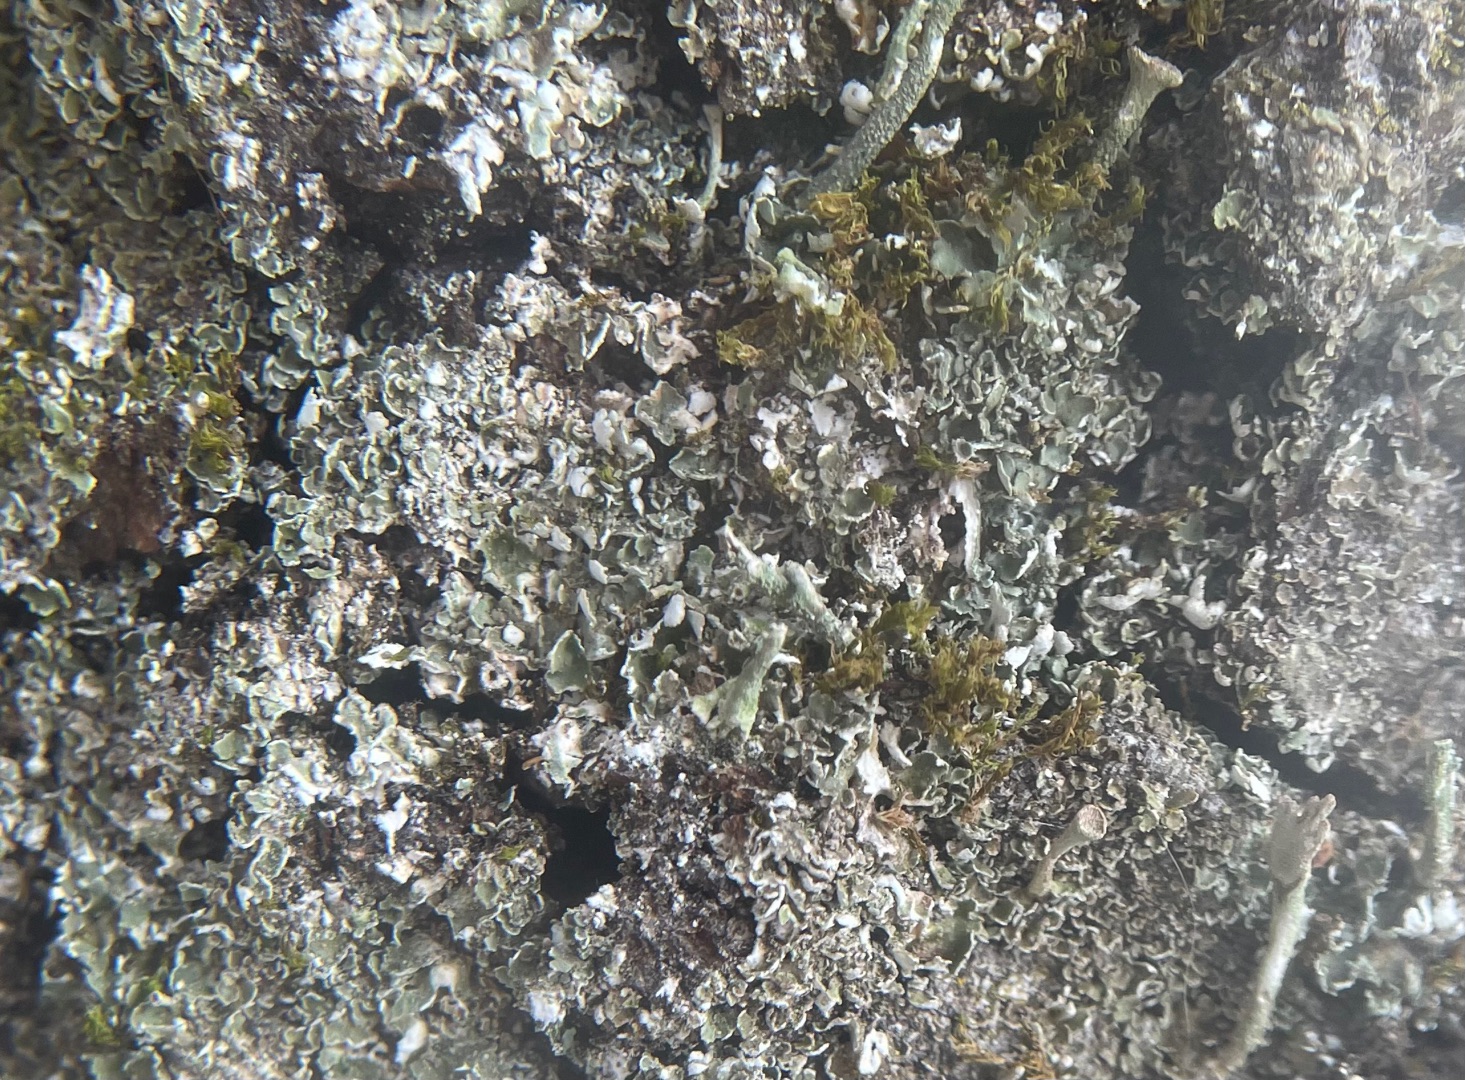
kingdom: Fungi
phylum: Ascomycota
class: Lecanoromycetes
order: Lecanorales
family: Cladoniaceae
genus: Cladonia
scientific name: Cladonia
